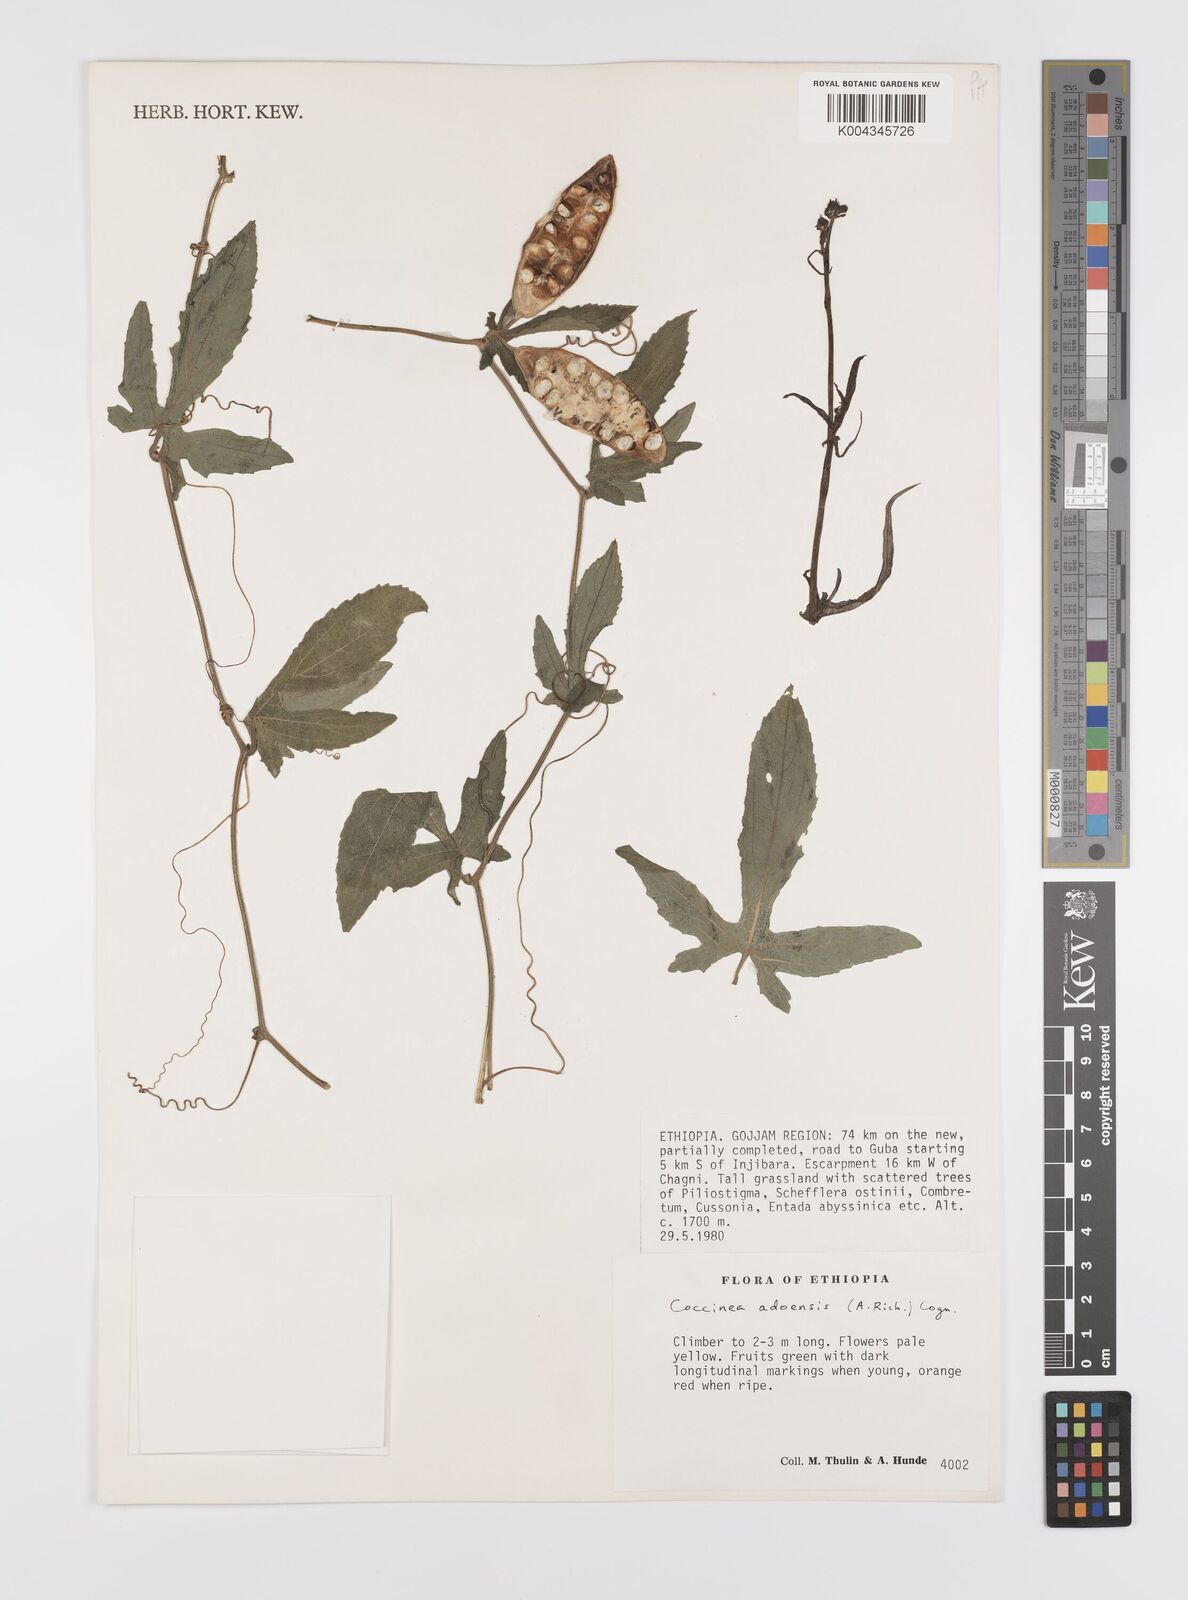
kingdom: Plantae
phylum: Tracheophyta
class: Magnoliopsida
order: Cucurbitales
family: Cucurbitaceae
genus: Coccinia
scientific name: Coccinia adoensis
